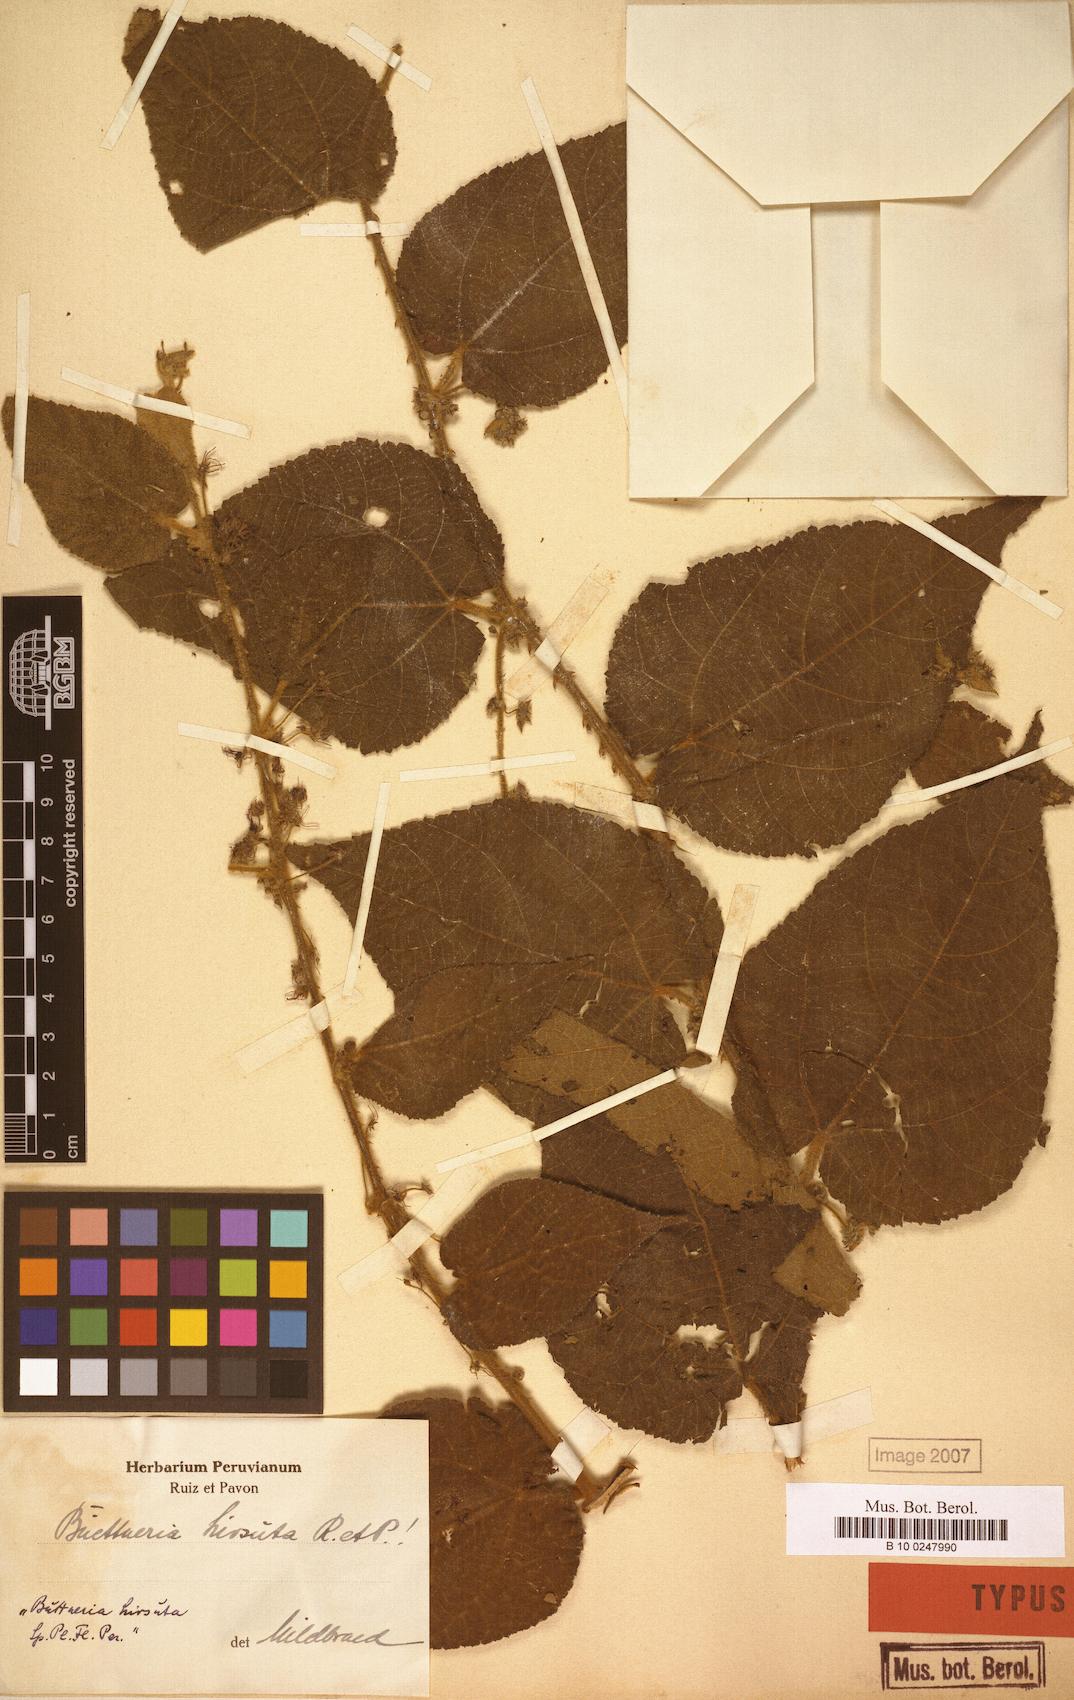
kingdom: Plantae
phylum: Tracheophyta
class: Magnoliopsida
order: Malvales
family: Malvaceae
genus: Byttneria
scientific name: Byttneria hirsuta
